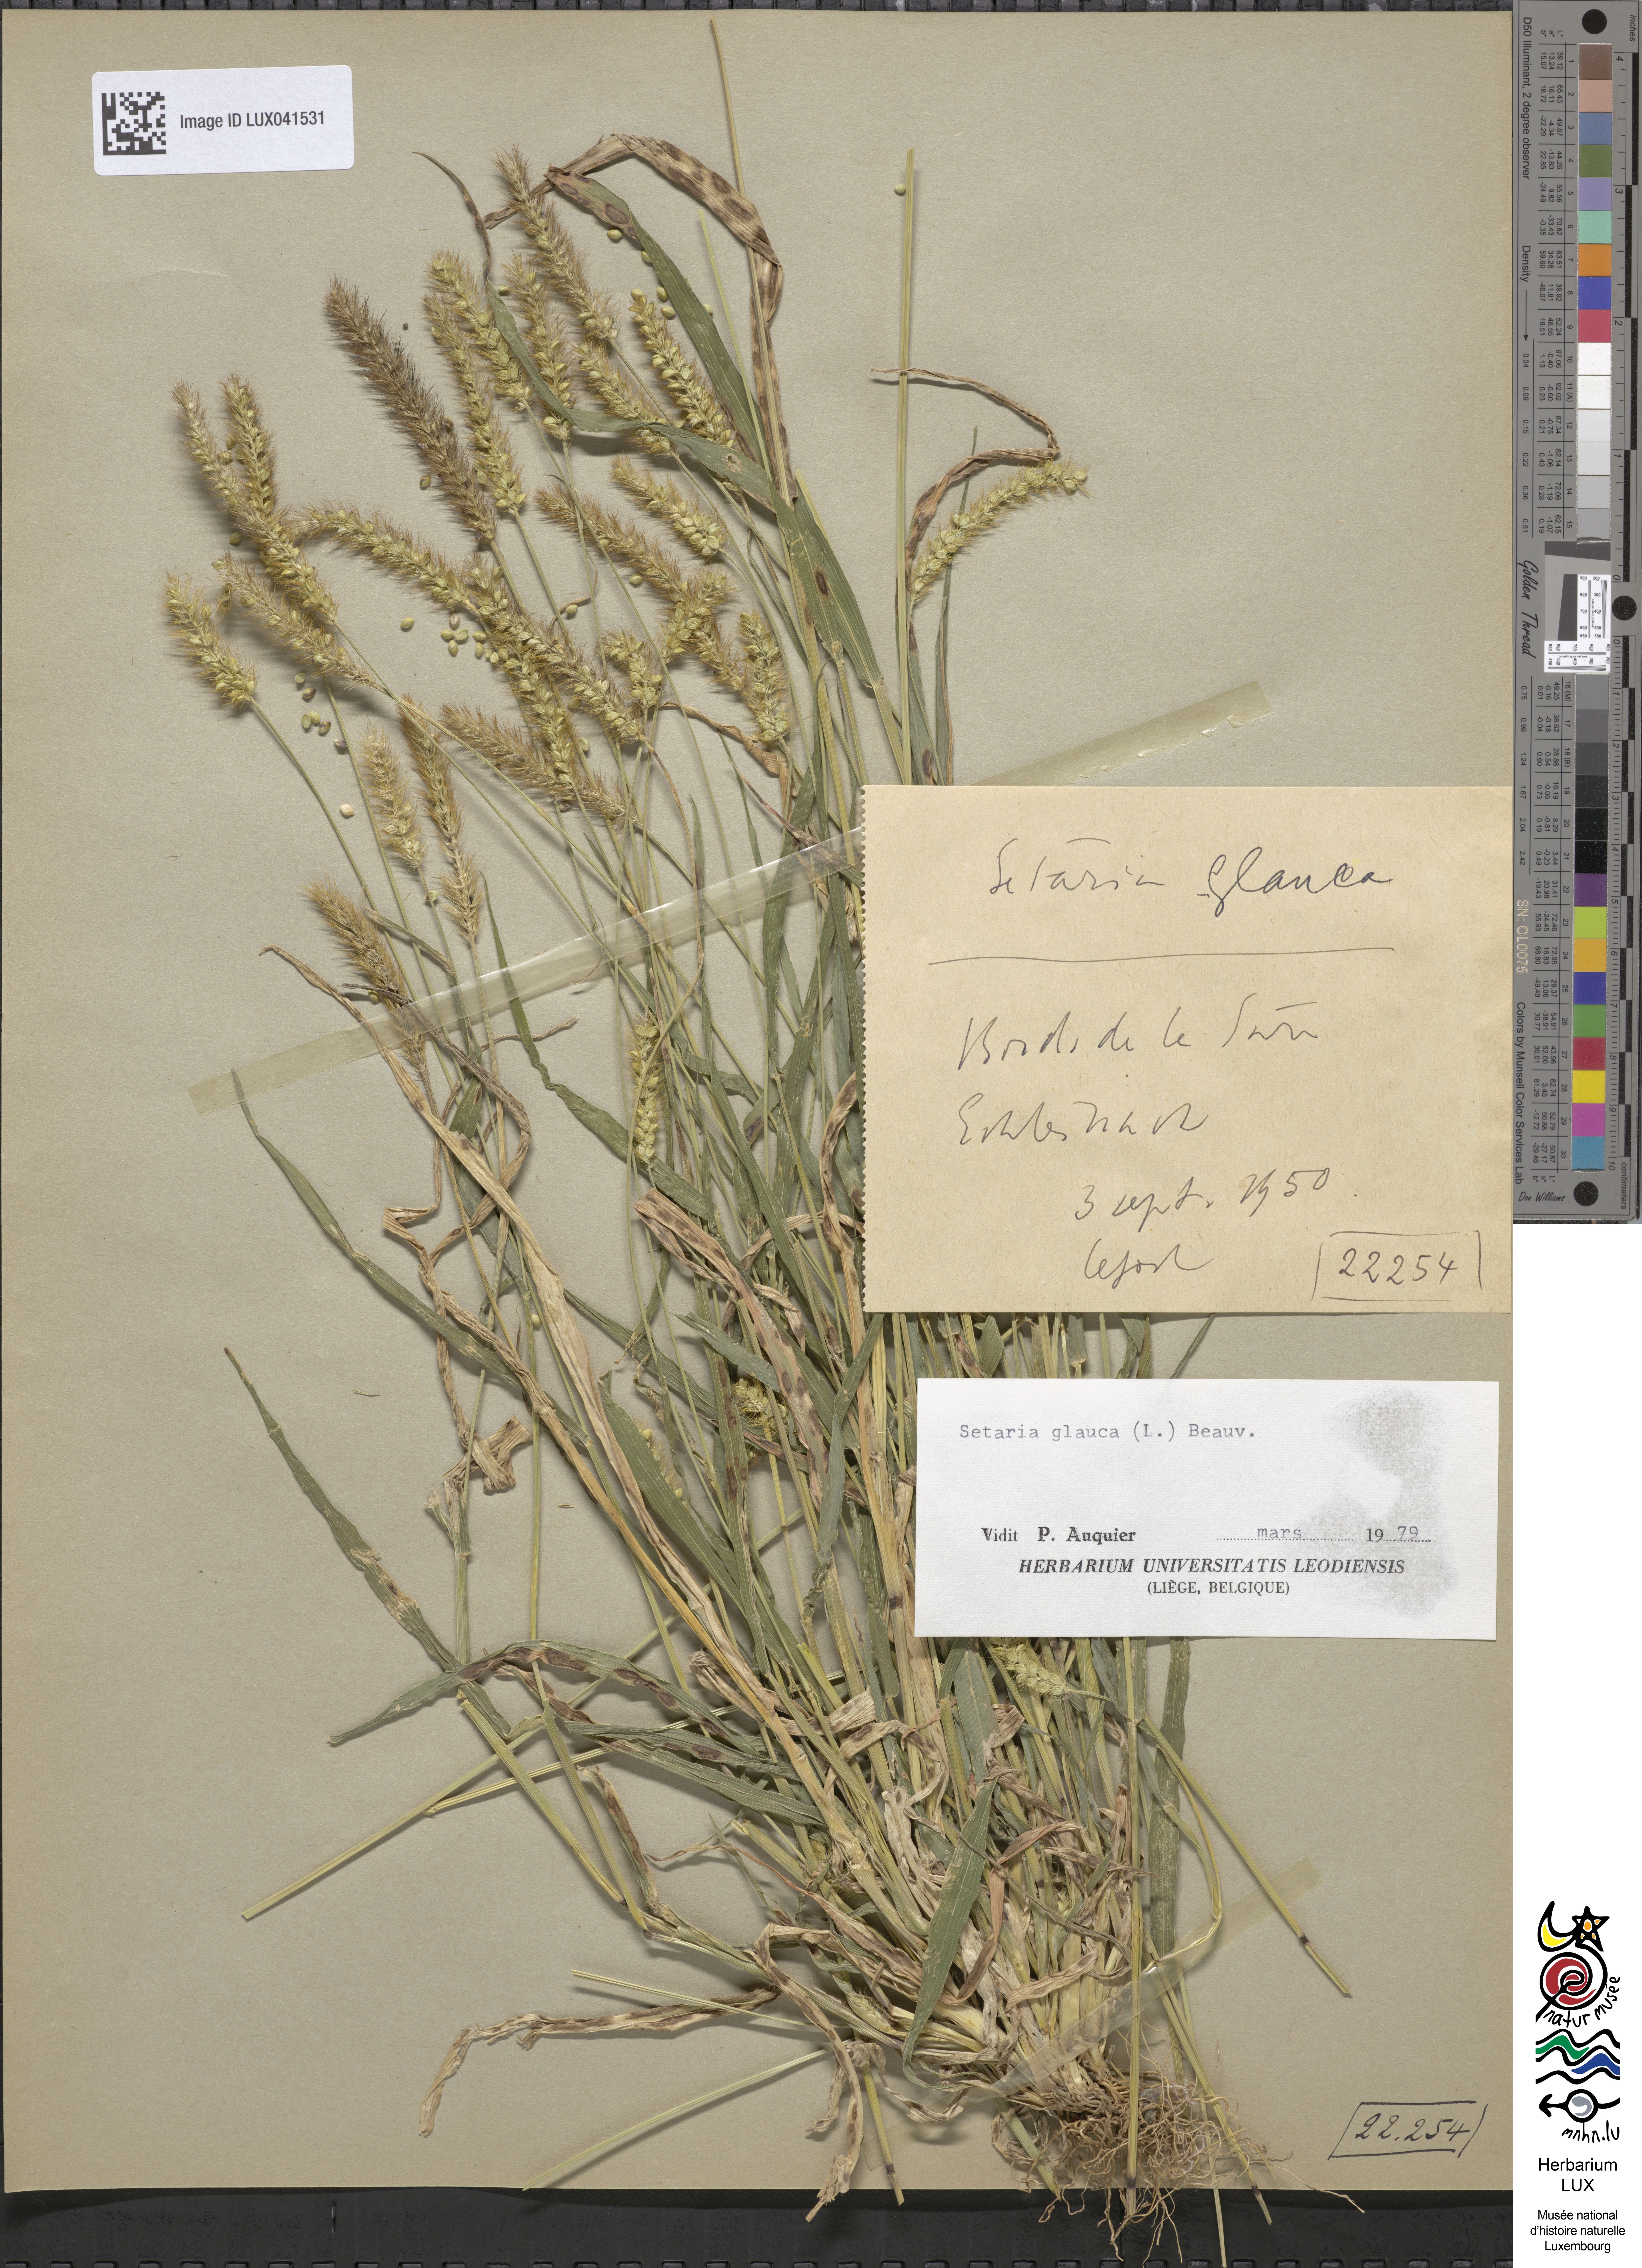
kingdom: Plantae
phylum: Tracheophyta
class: Liliopsida
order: Poales
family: Poaceae
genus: Cenchrus
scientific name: Cenchrus americanus
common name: Pearl millet
